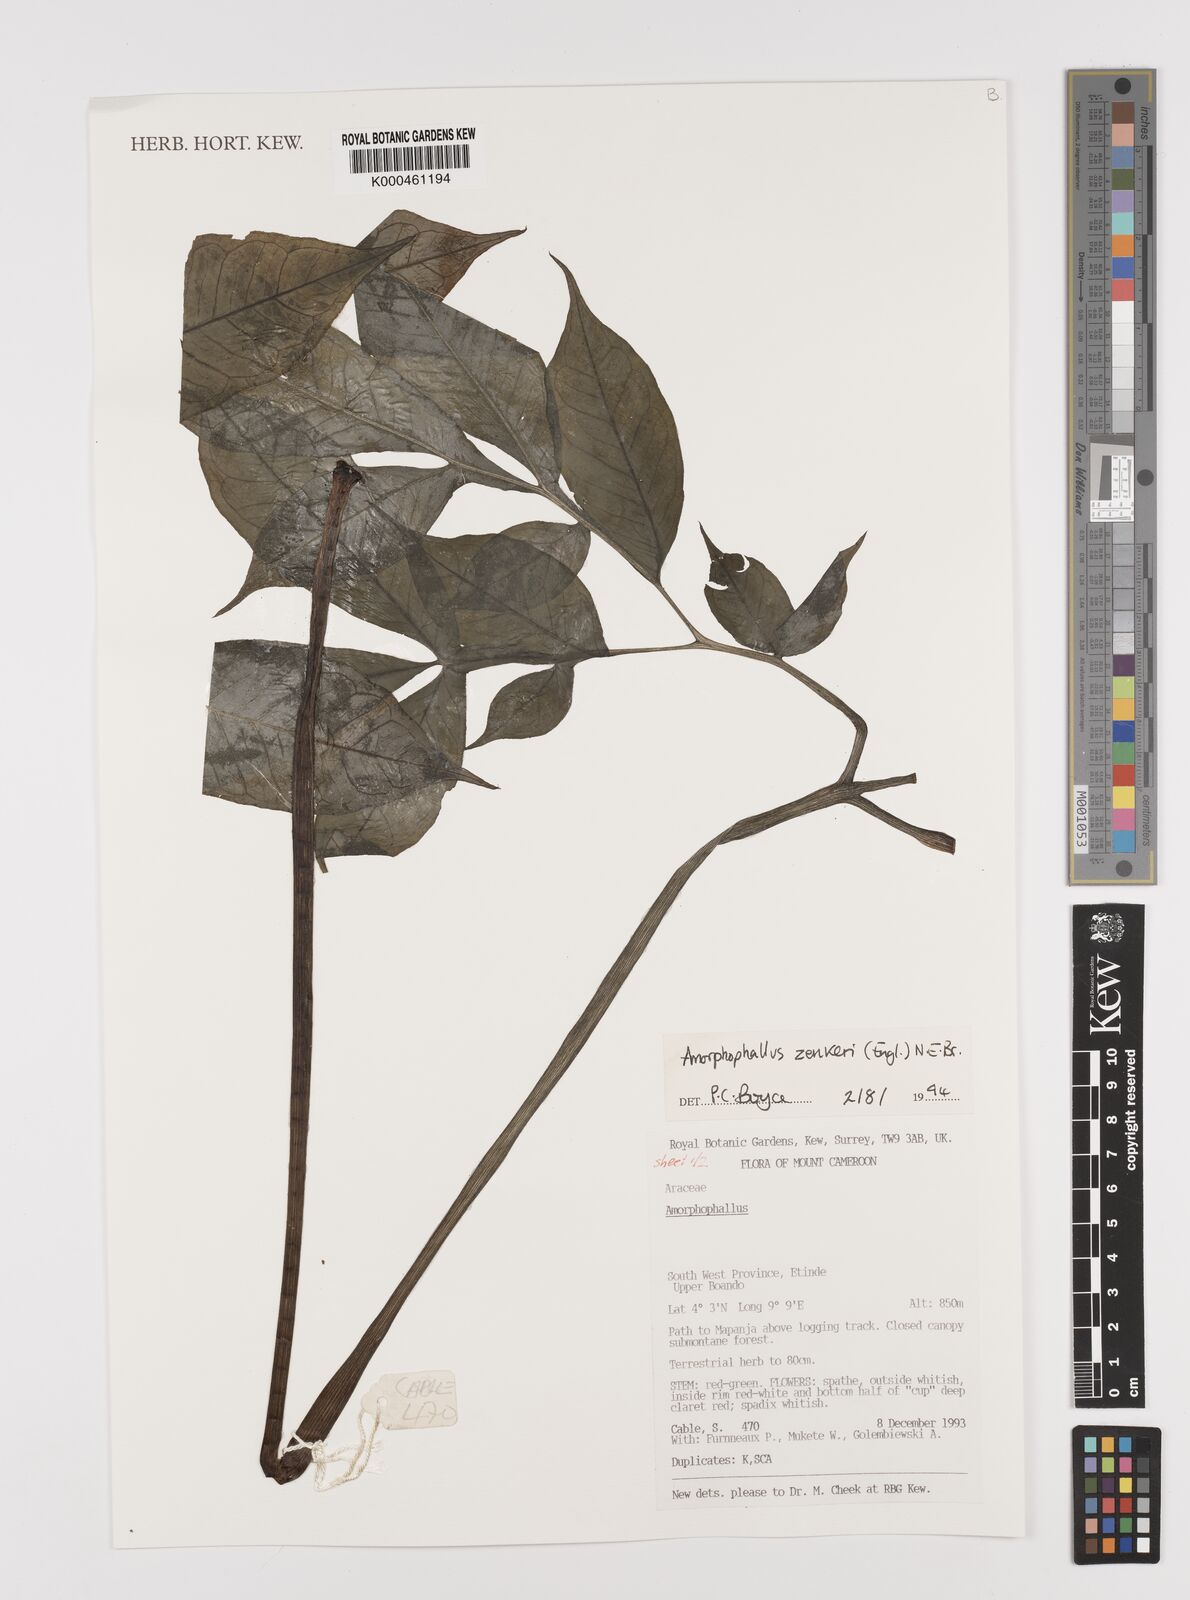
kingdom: Plantae
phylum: Tracheophyta
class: Liliopsida
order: Alismatales
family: Araceae
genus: Amorphophallus
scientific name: Amorphophallus zenkeri
